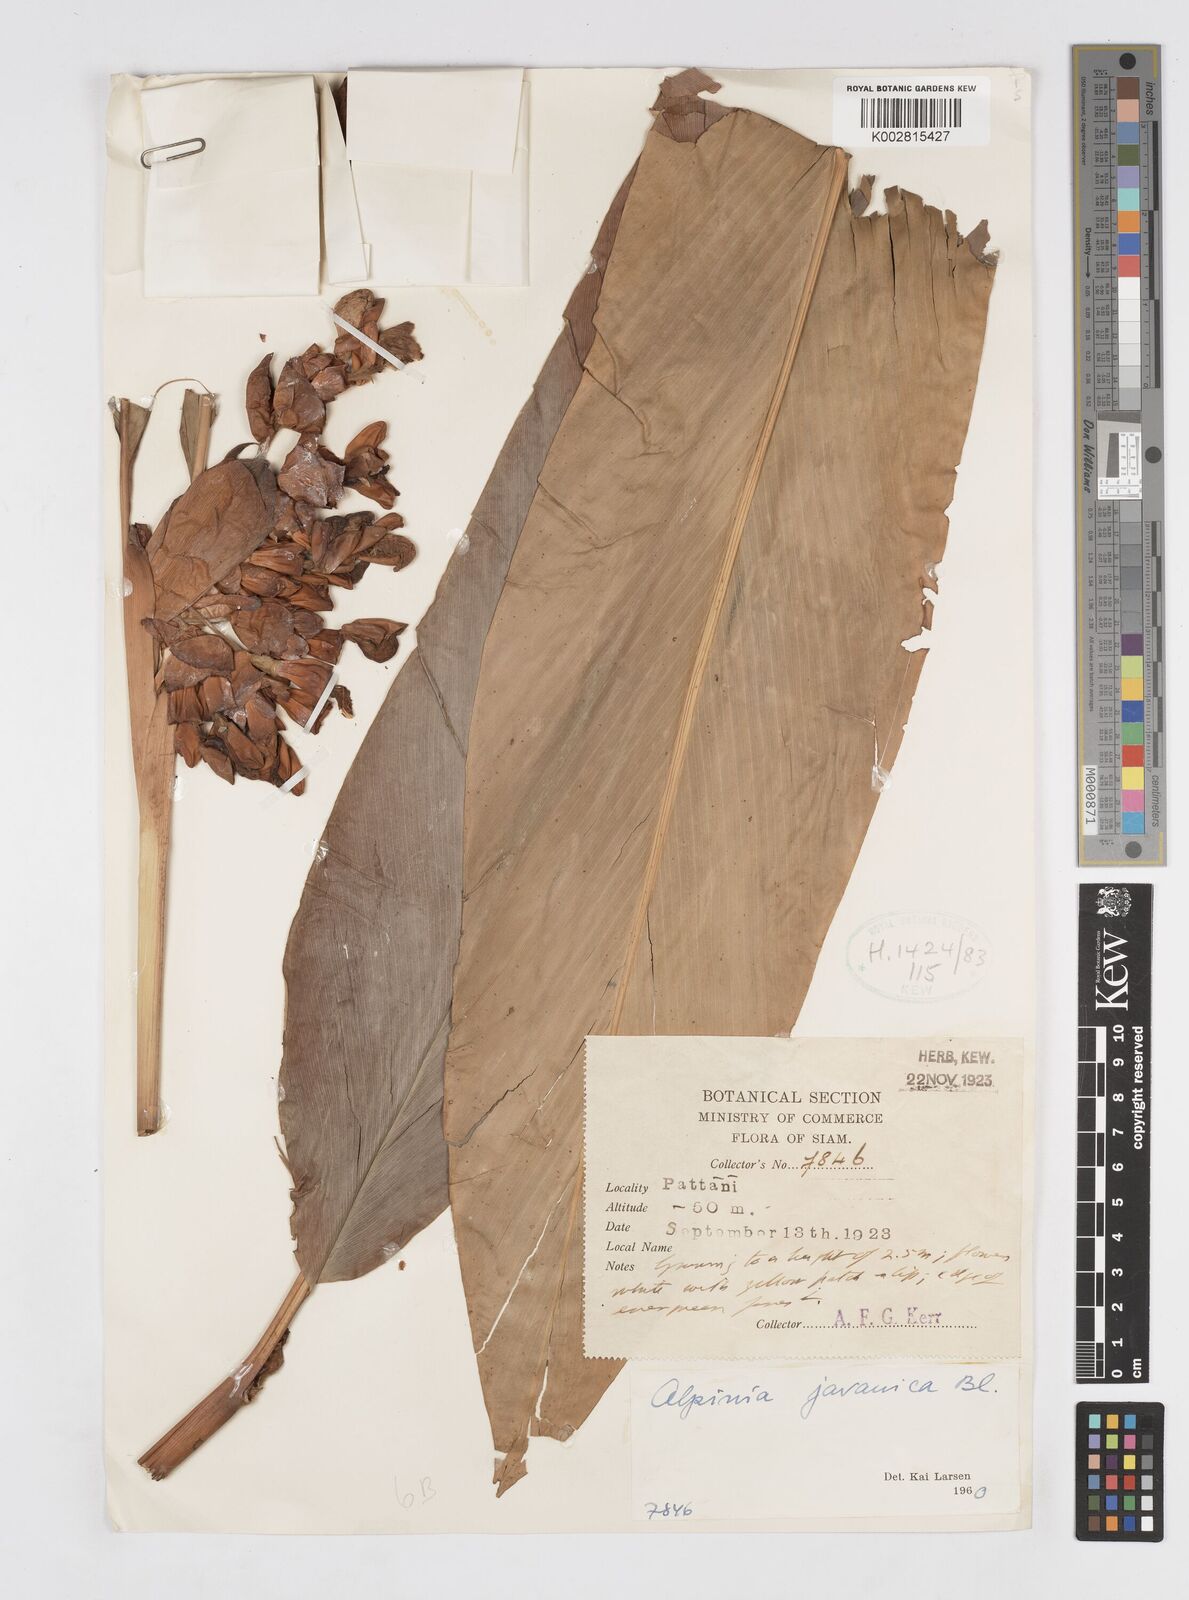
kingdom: Plantae
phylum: Tracheophyta
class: Liliopsida
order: Zingiberales
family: Zingiberaceae
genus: Alpinia
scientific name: Alpinia javanica
